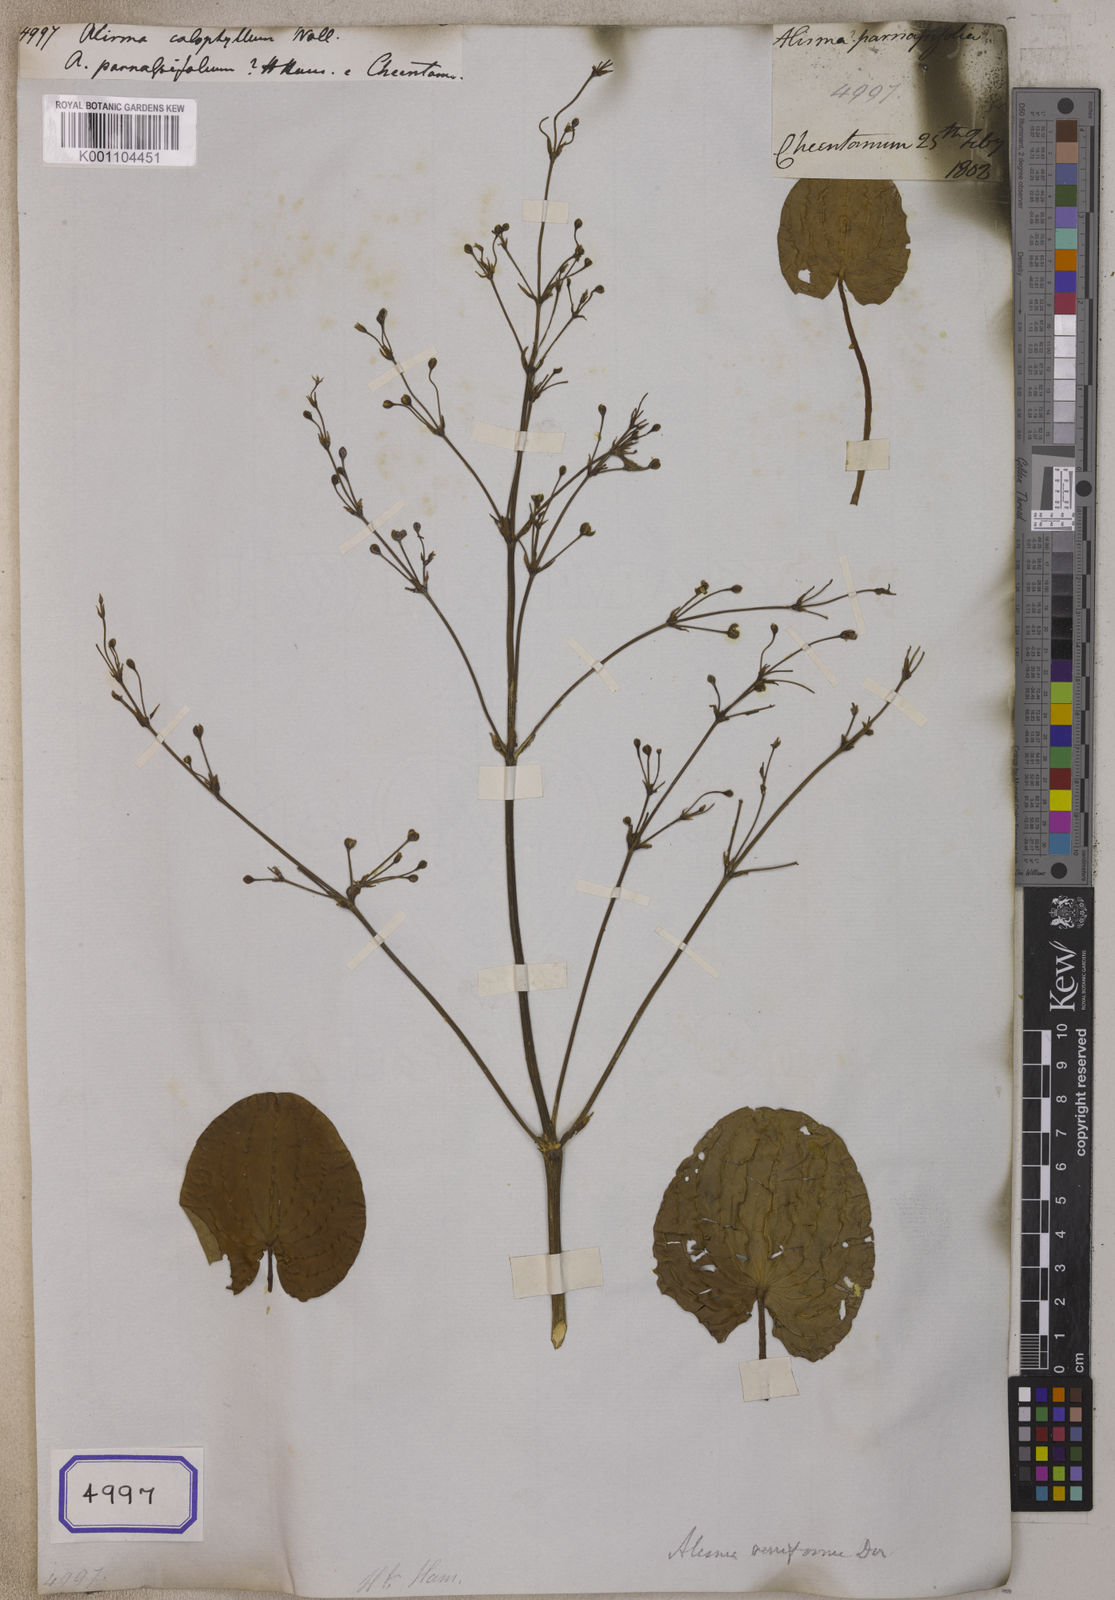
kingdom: Plantae
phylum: Tracheophyta
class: Liliopsida
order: Alismatales
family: Alismataceae
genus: Caldesia
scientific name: Caldesia parnassifolia
